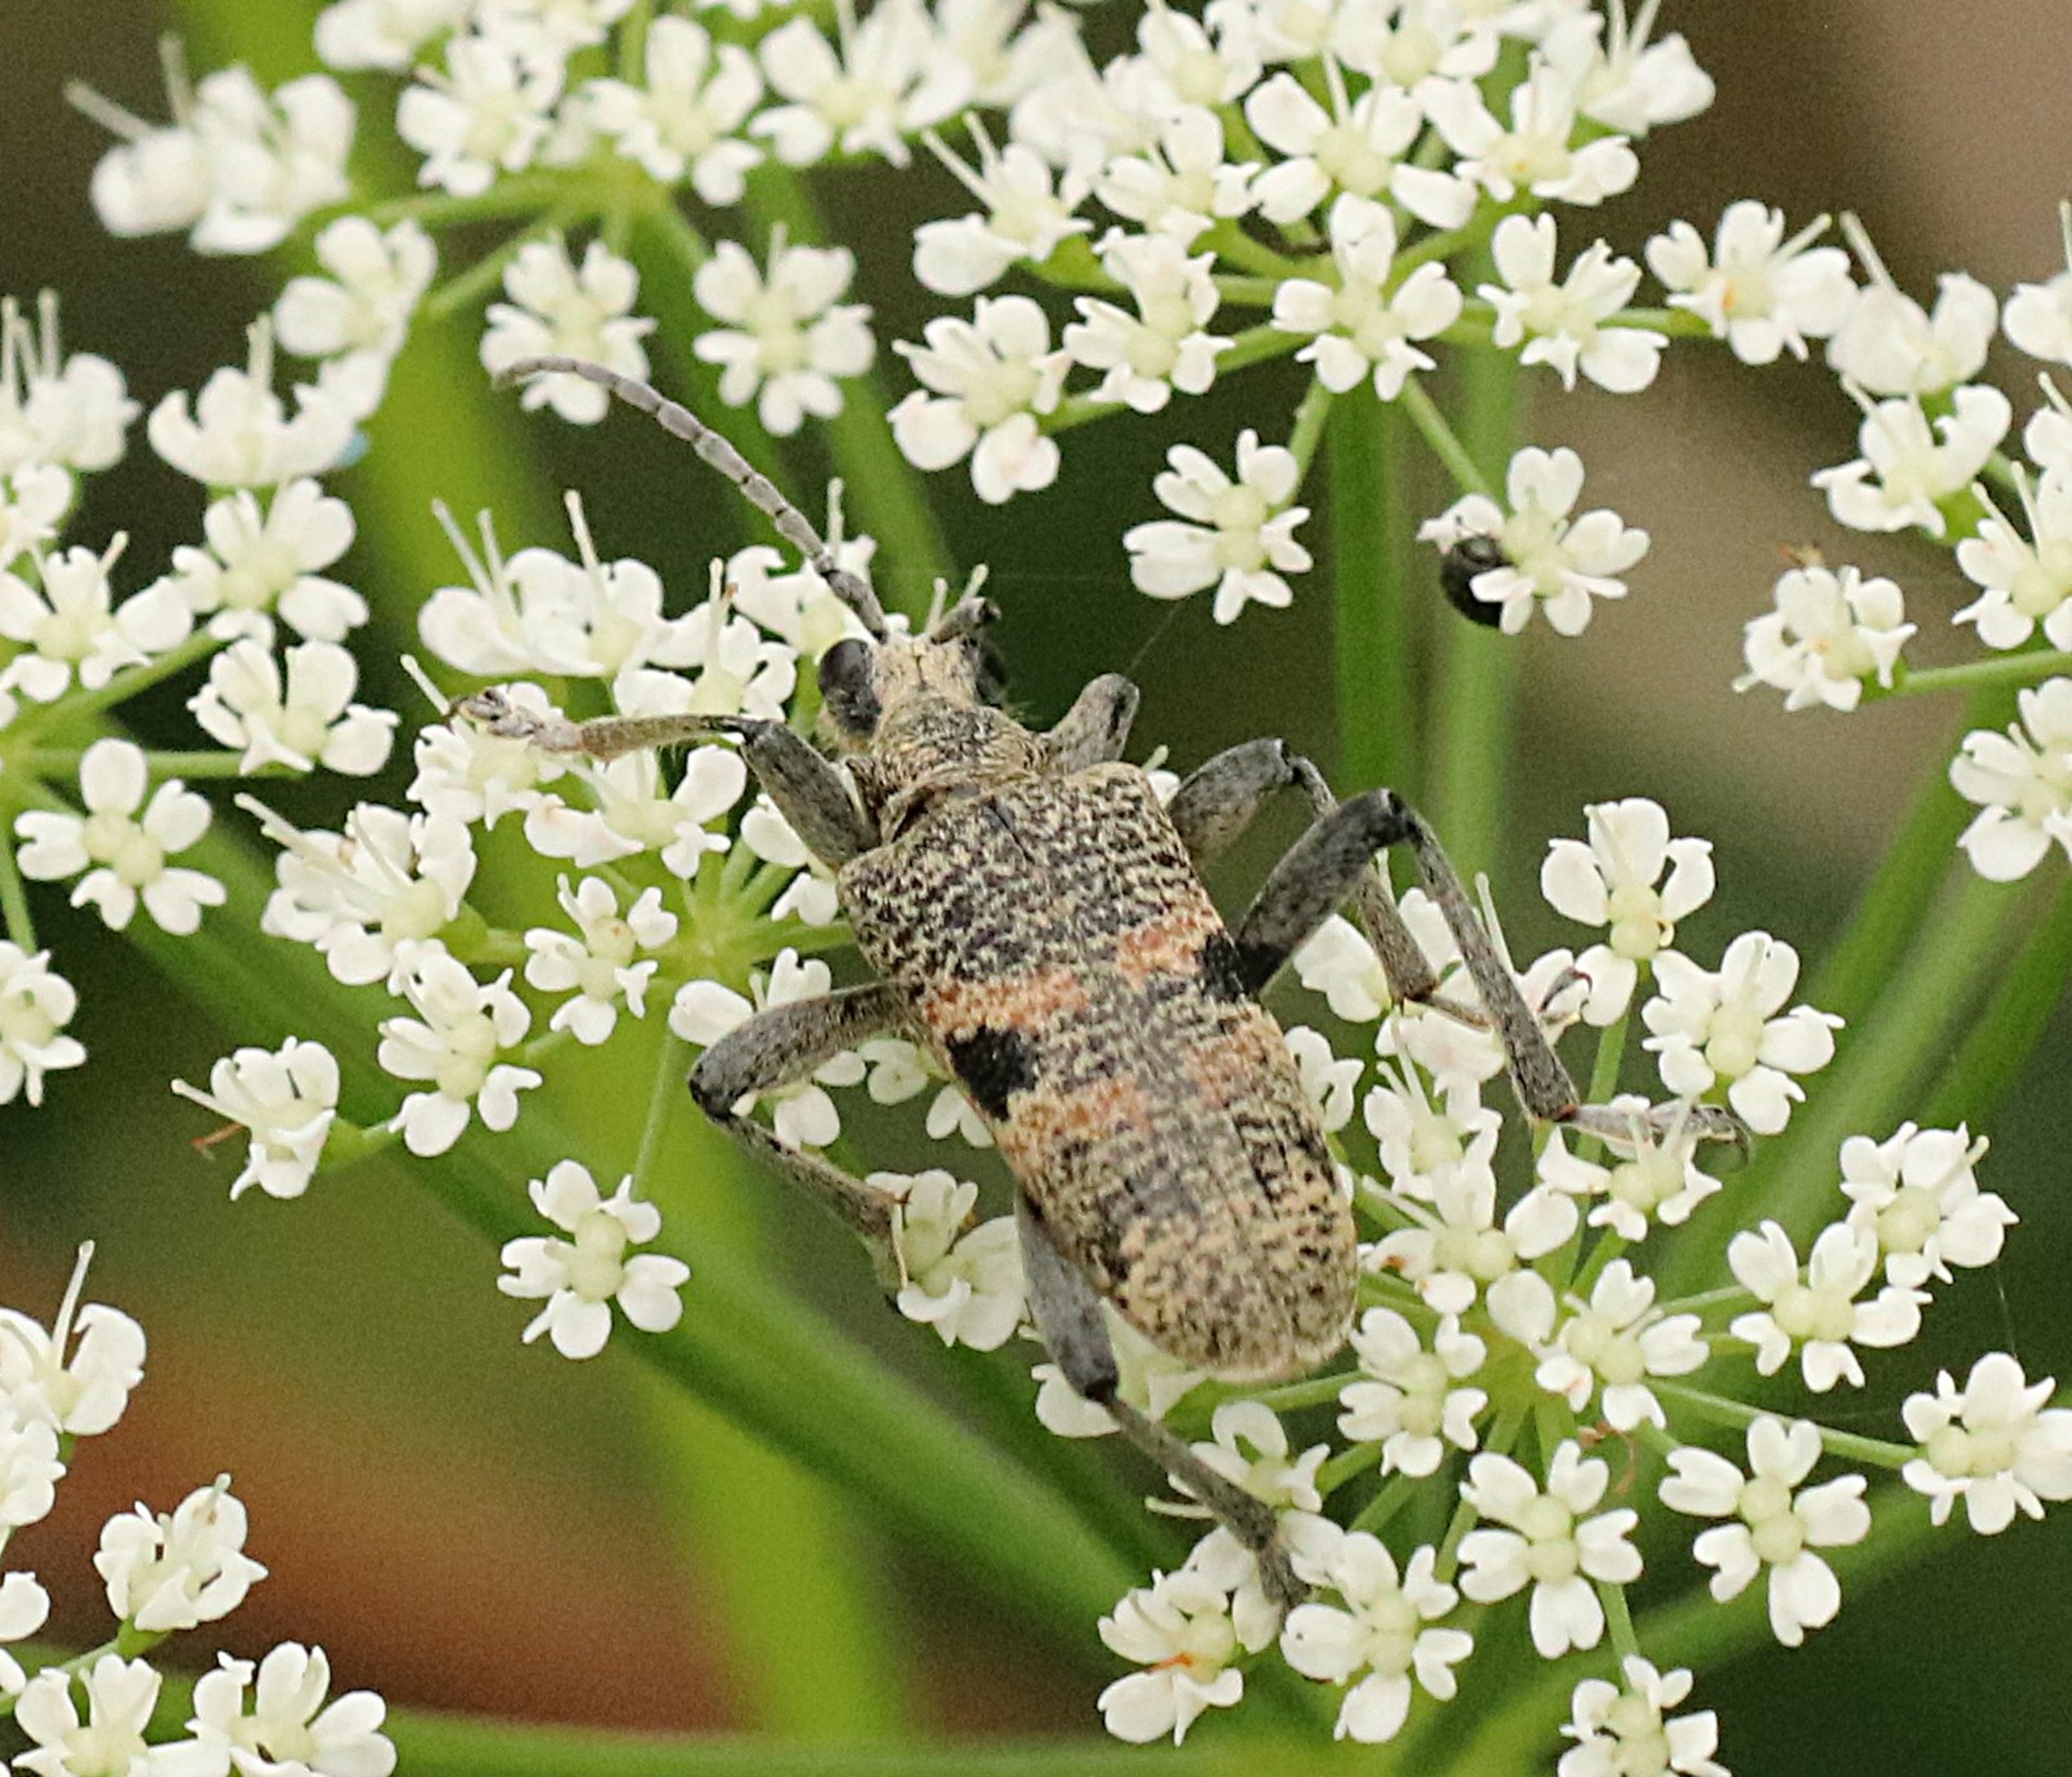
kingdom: Animalia
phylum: Arthropoda
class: Insecta
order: Coleoptera
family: Cerambycidae
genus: Rhagium
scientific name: Rhagium mordax
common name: Blankplettet tandbuk
